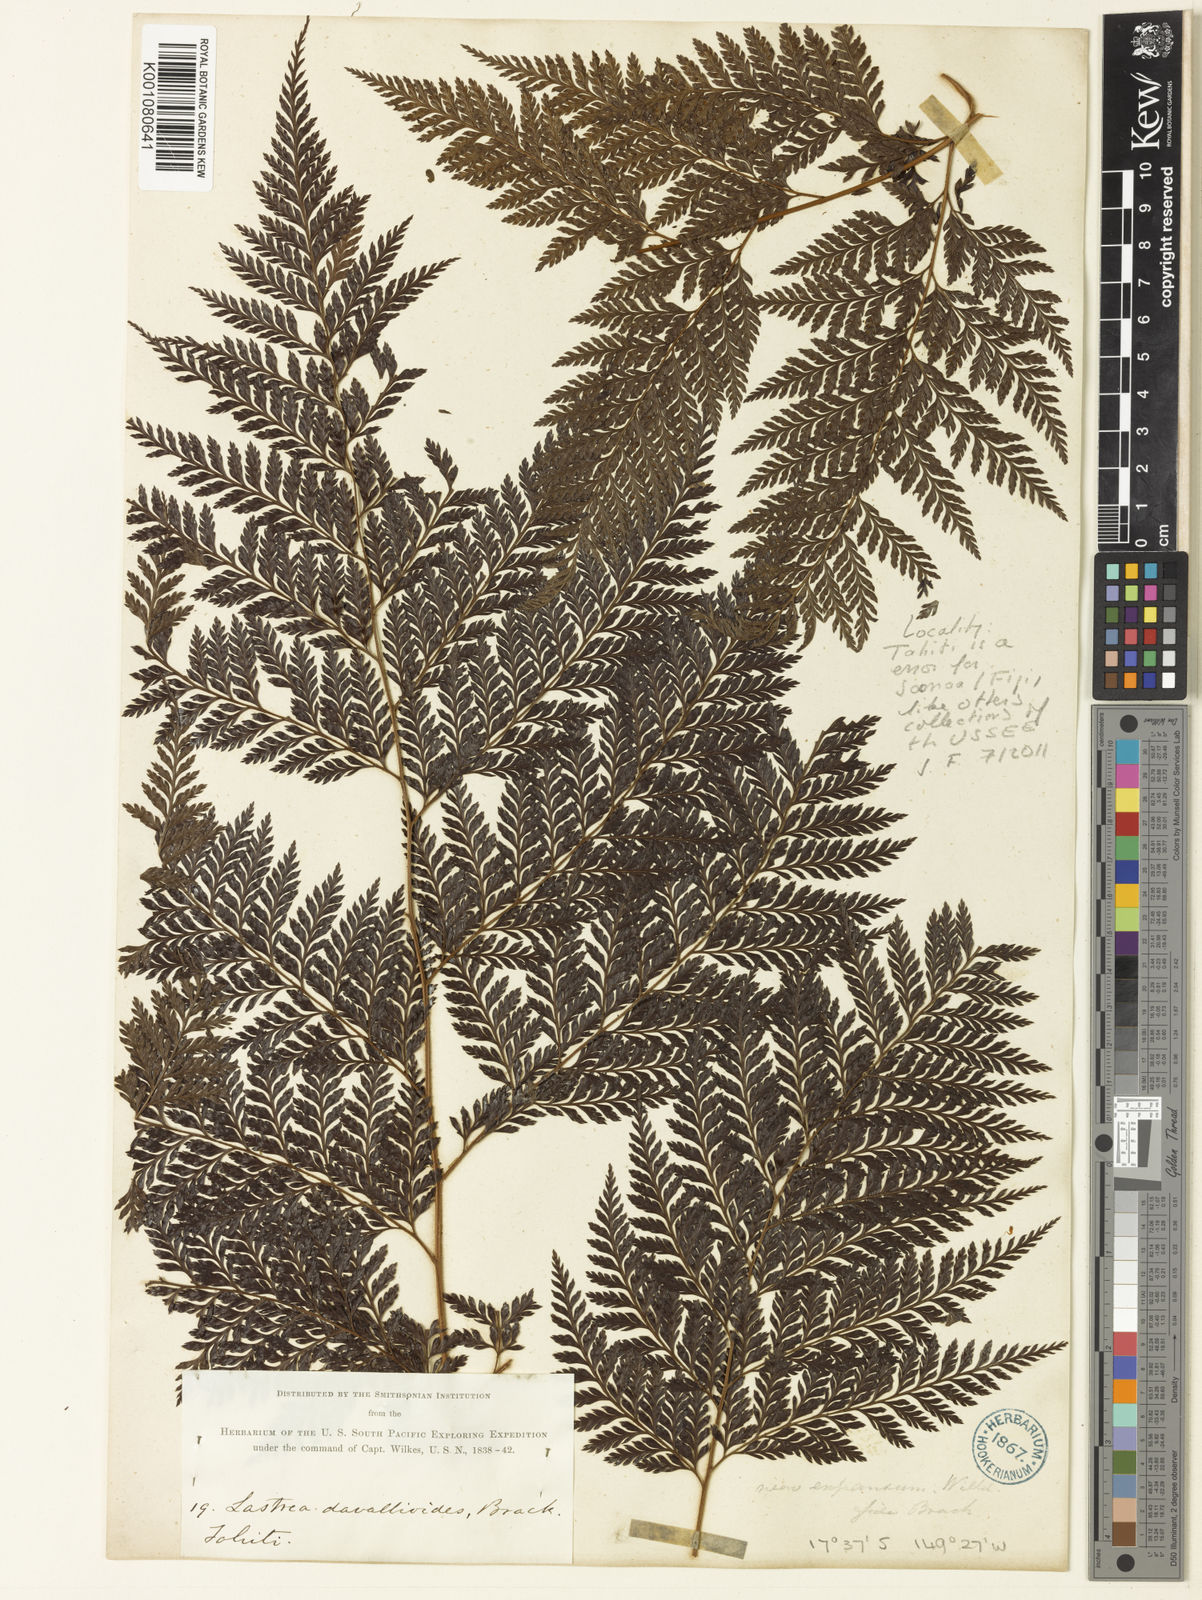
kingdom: Plantae
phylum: Tracheophyta
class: Polypodiopsida
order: Polypodiales
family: Dryopteridaceae
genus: Lastreopsis
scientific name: Lastreopsis davallioides
